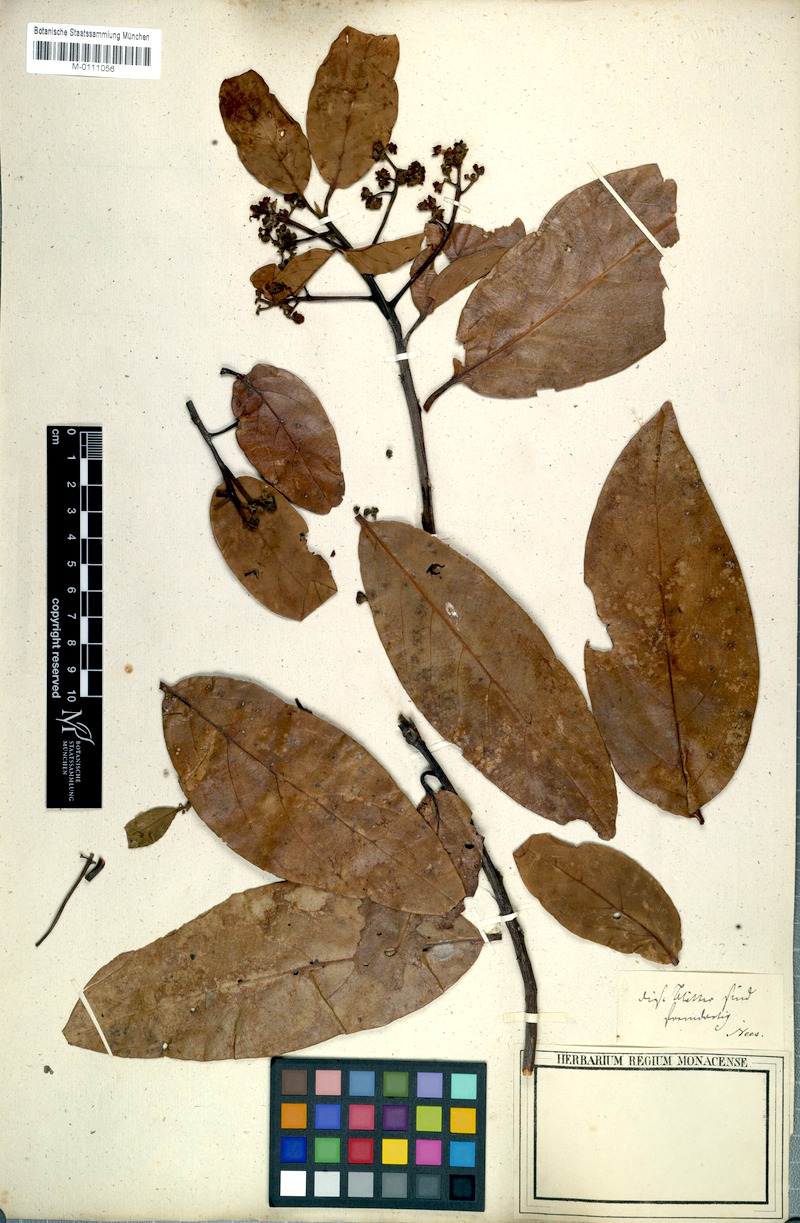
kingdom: Plantae
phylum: Tracheophyta
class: Magnoliopsida
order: Laurales
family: Lauraceae
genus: Nectandra
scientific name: Nectandra leucantha
